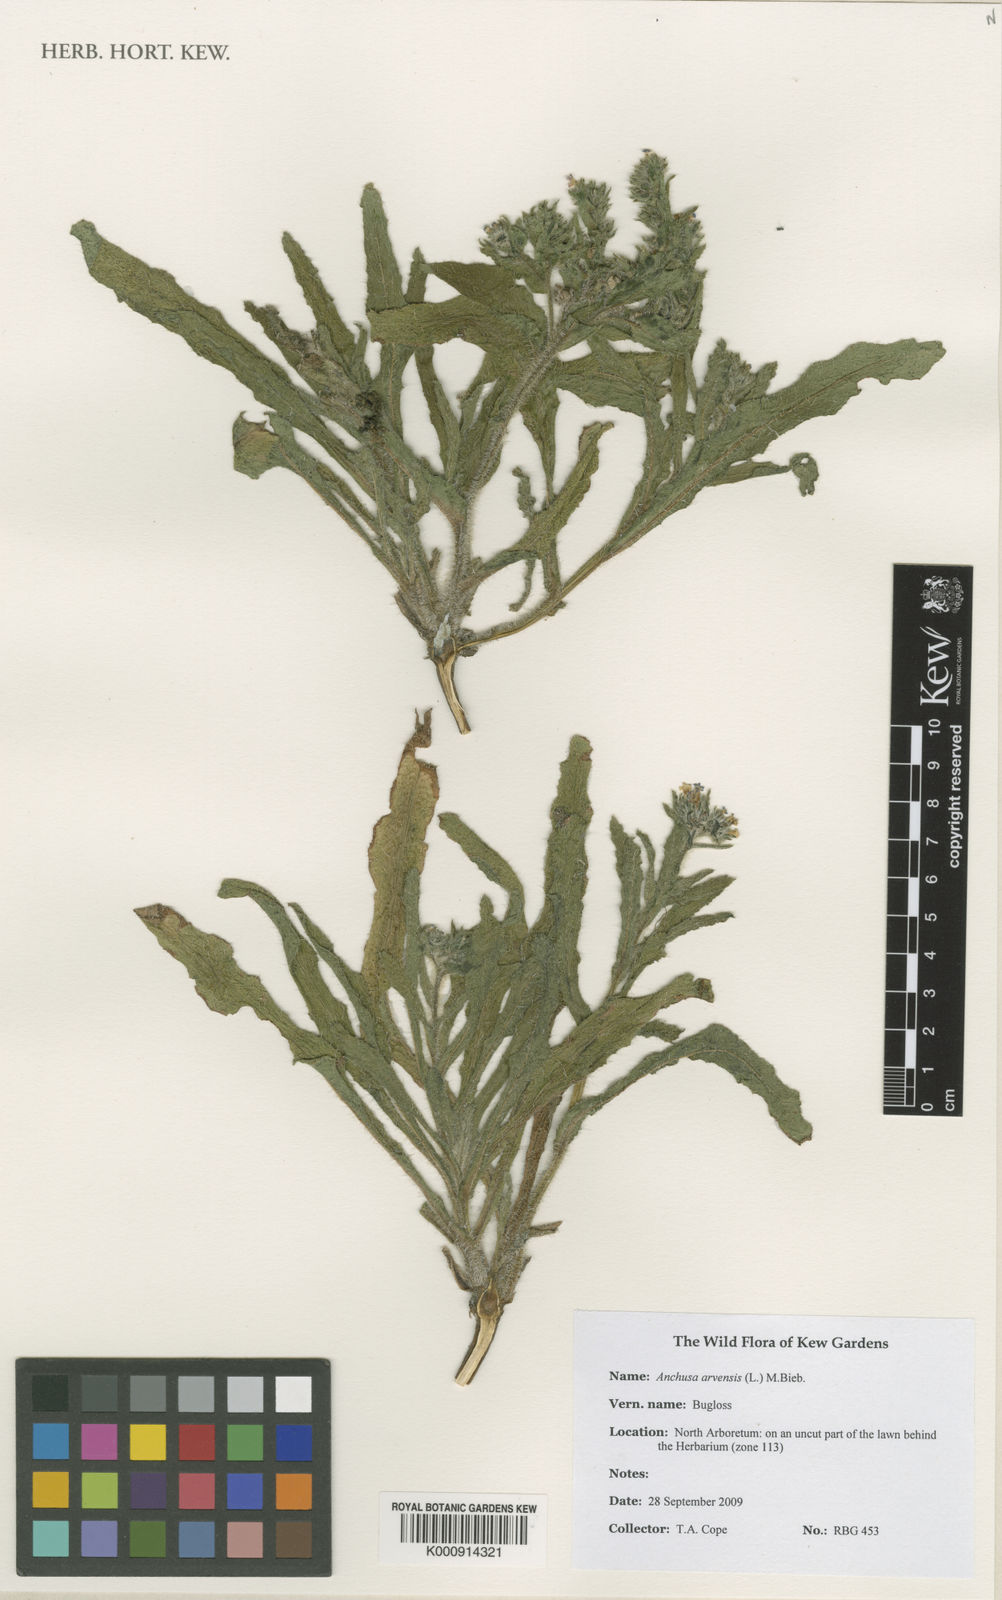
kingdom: Plantae
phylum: Tracheophyta
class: Magnoliopsida
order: Boraginales
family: Boraginaceae
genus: Lycopsis
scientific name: Lycopsis arvensis
